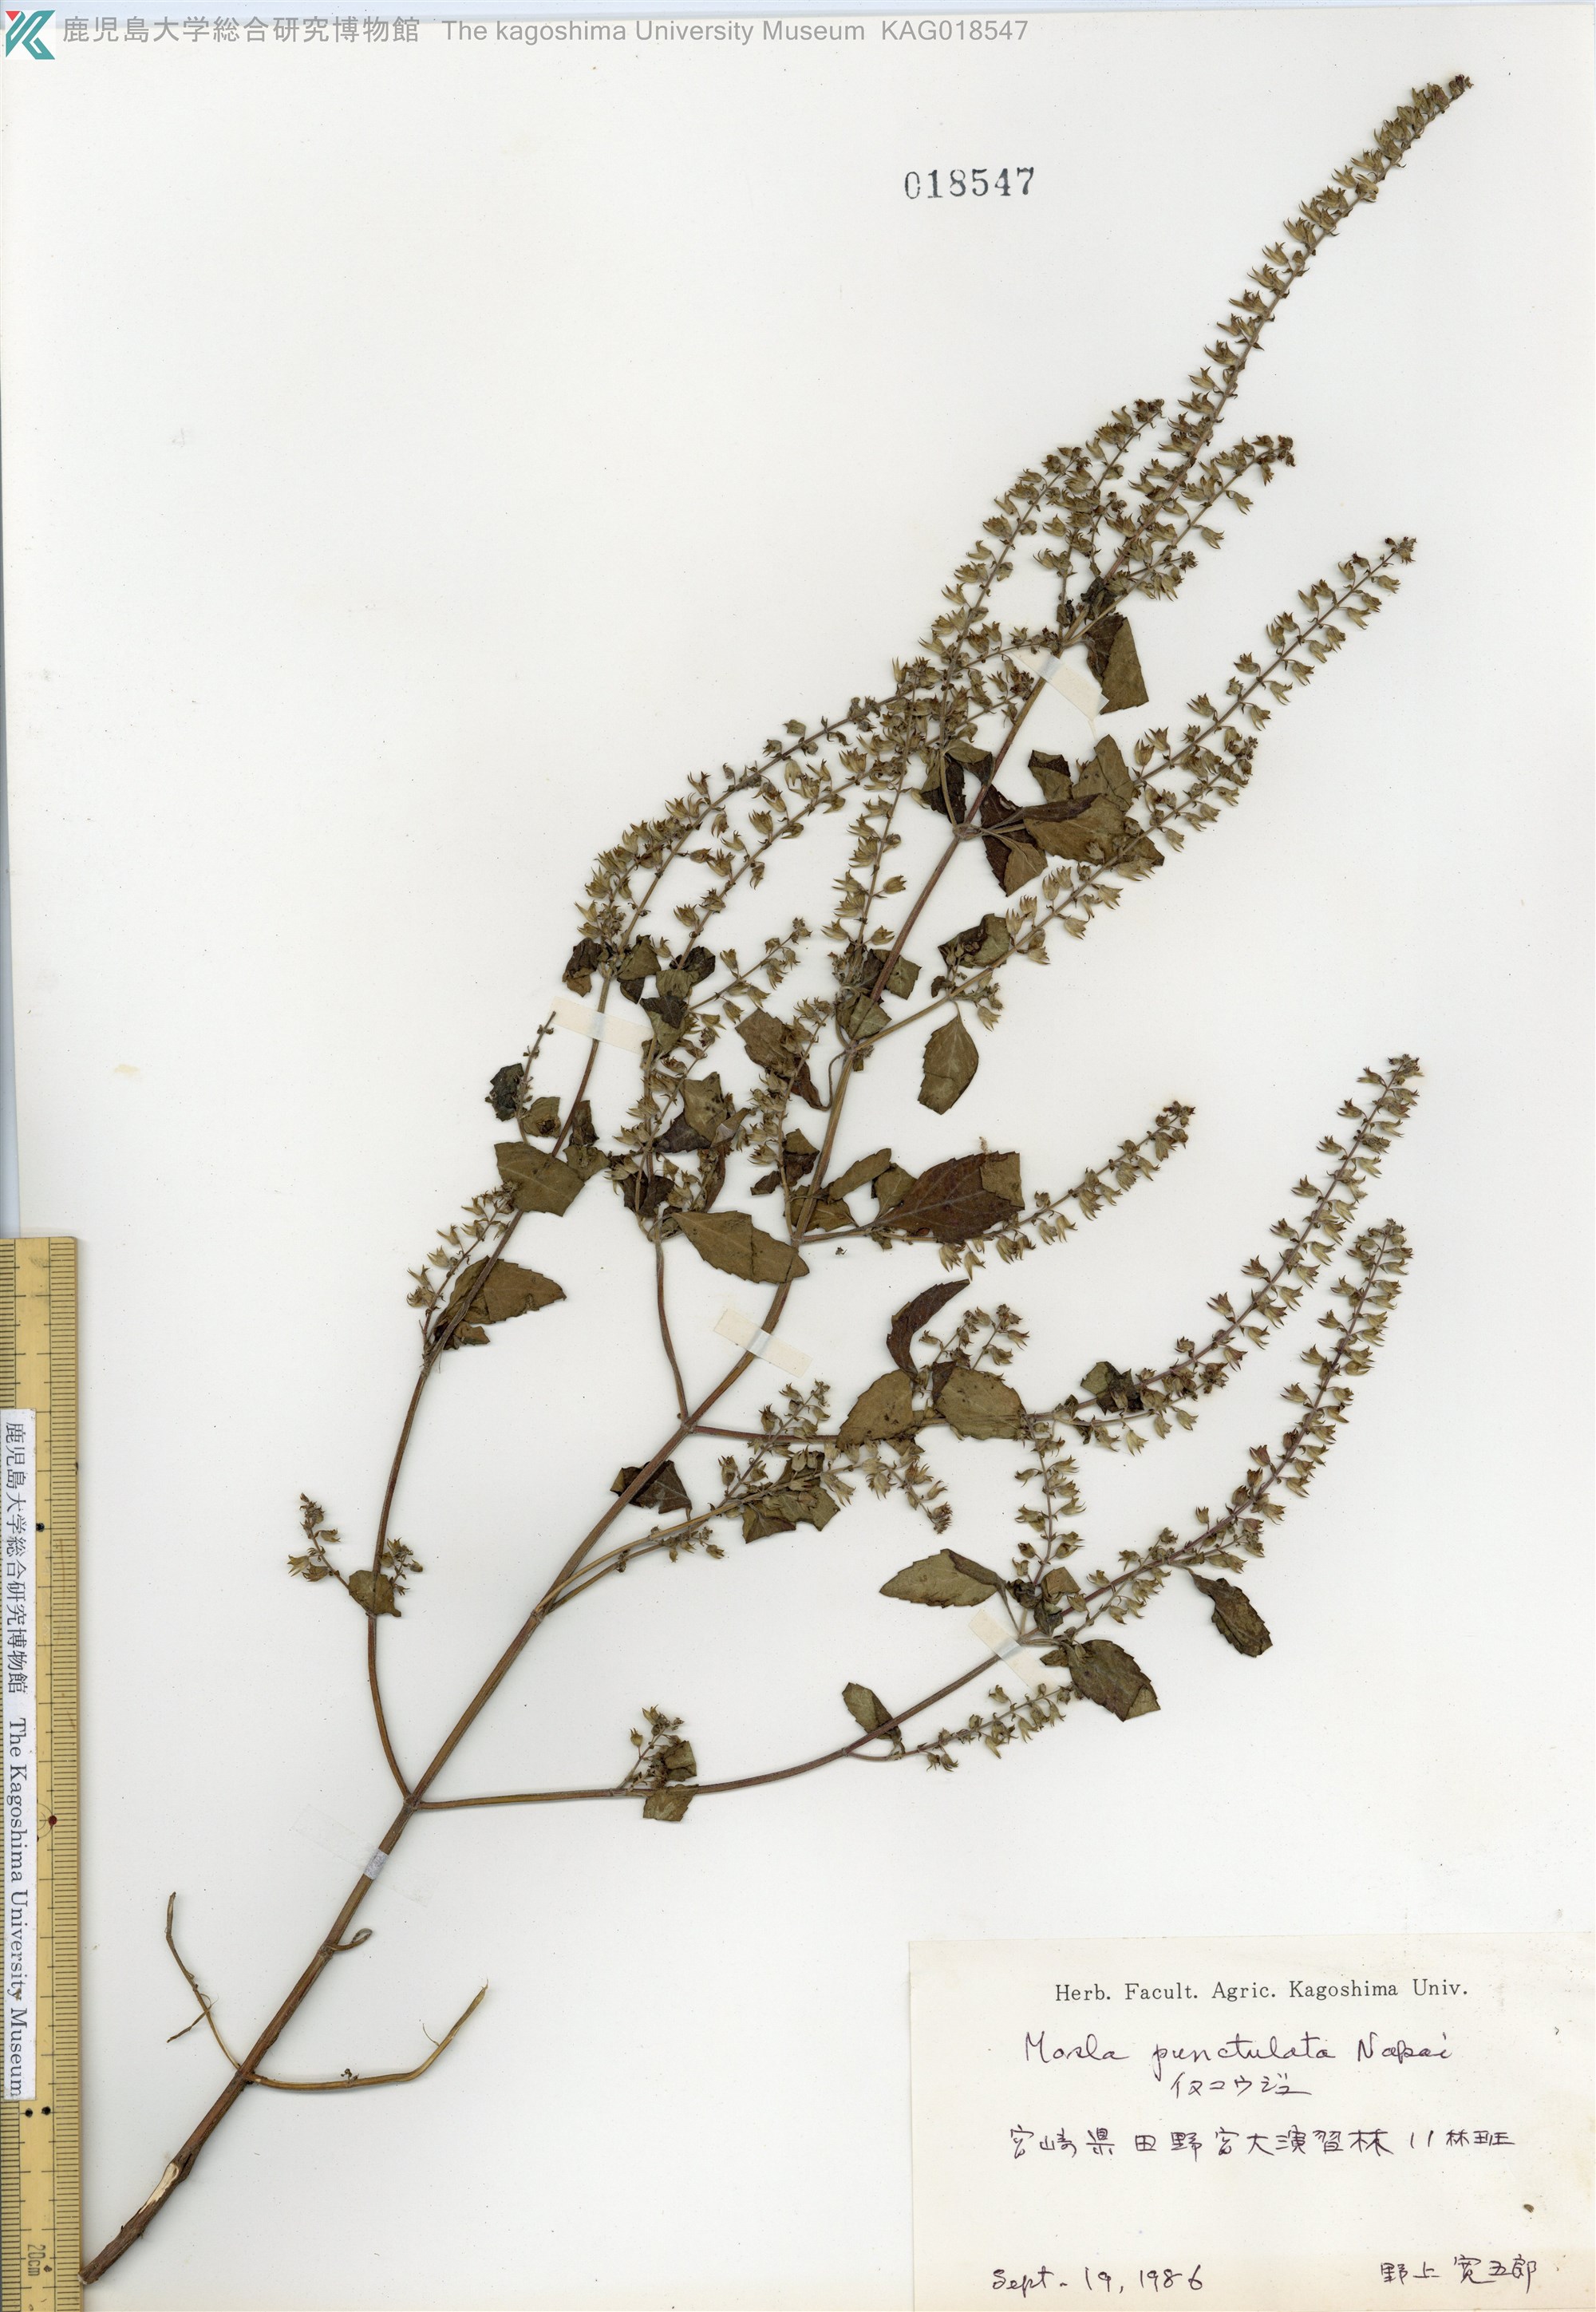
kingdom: Plantae
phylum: Tracheophyta
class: Magnoliopsida
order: Lamiales
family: Lamiaceae
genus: Mosla
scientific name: Mosla scabra
